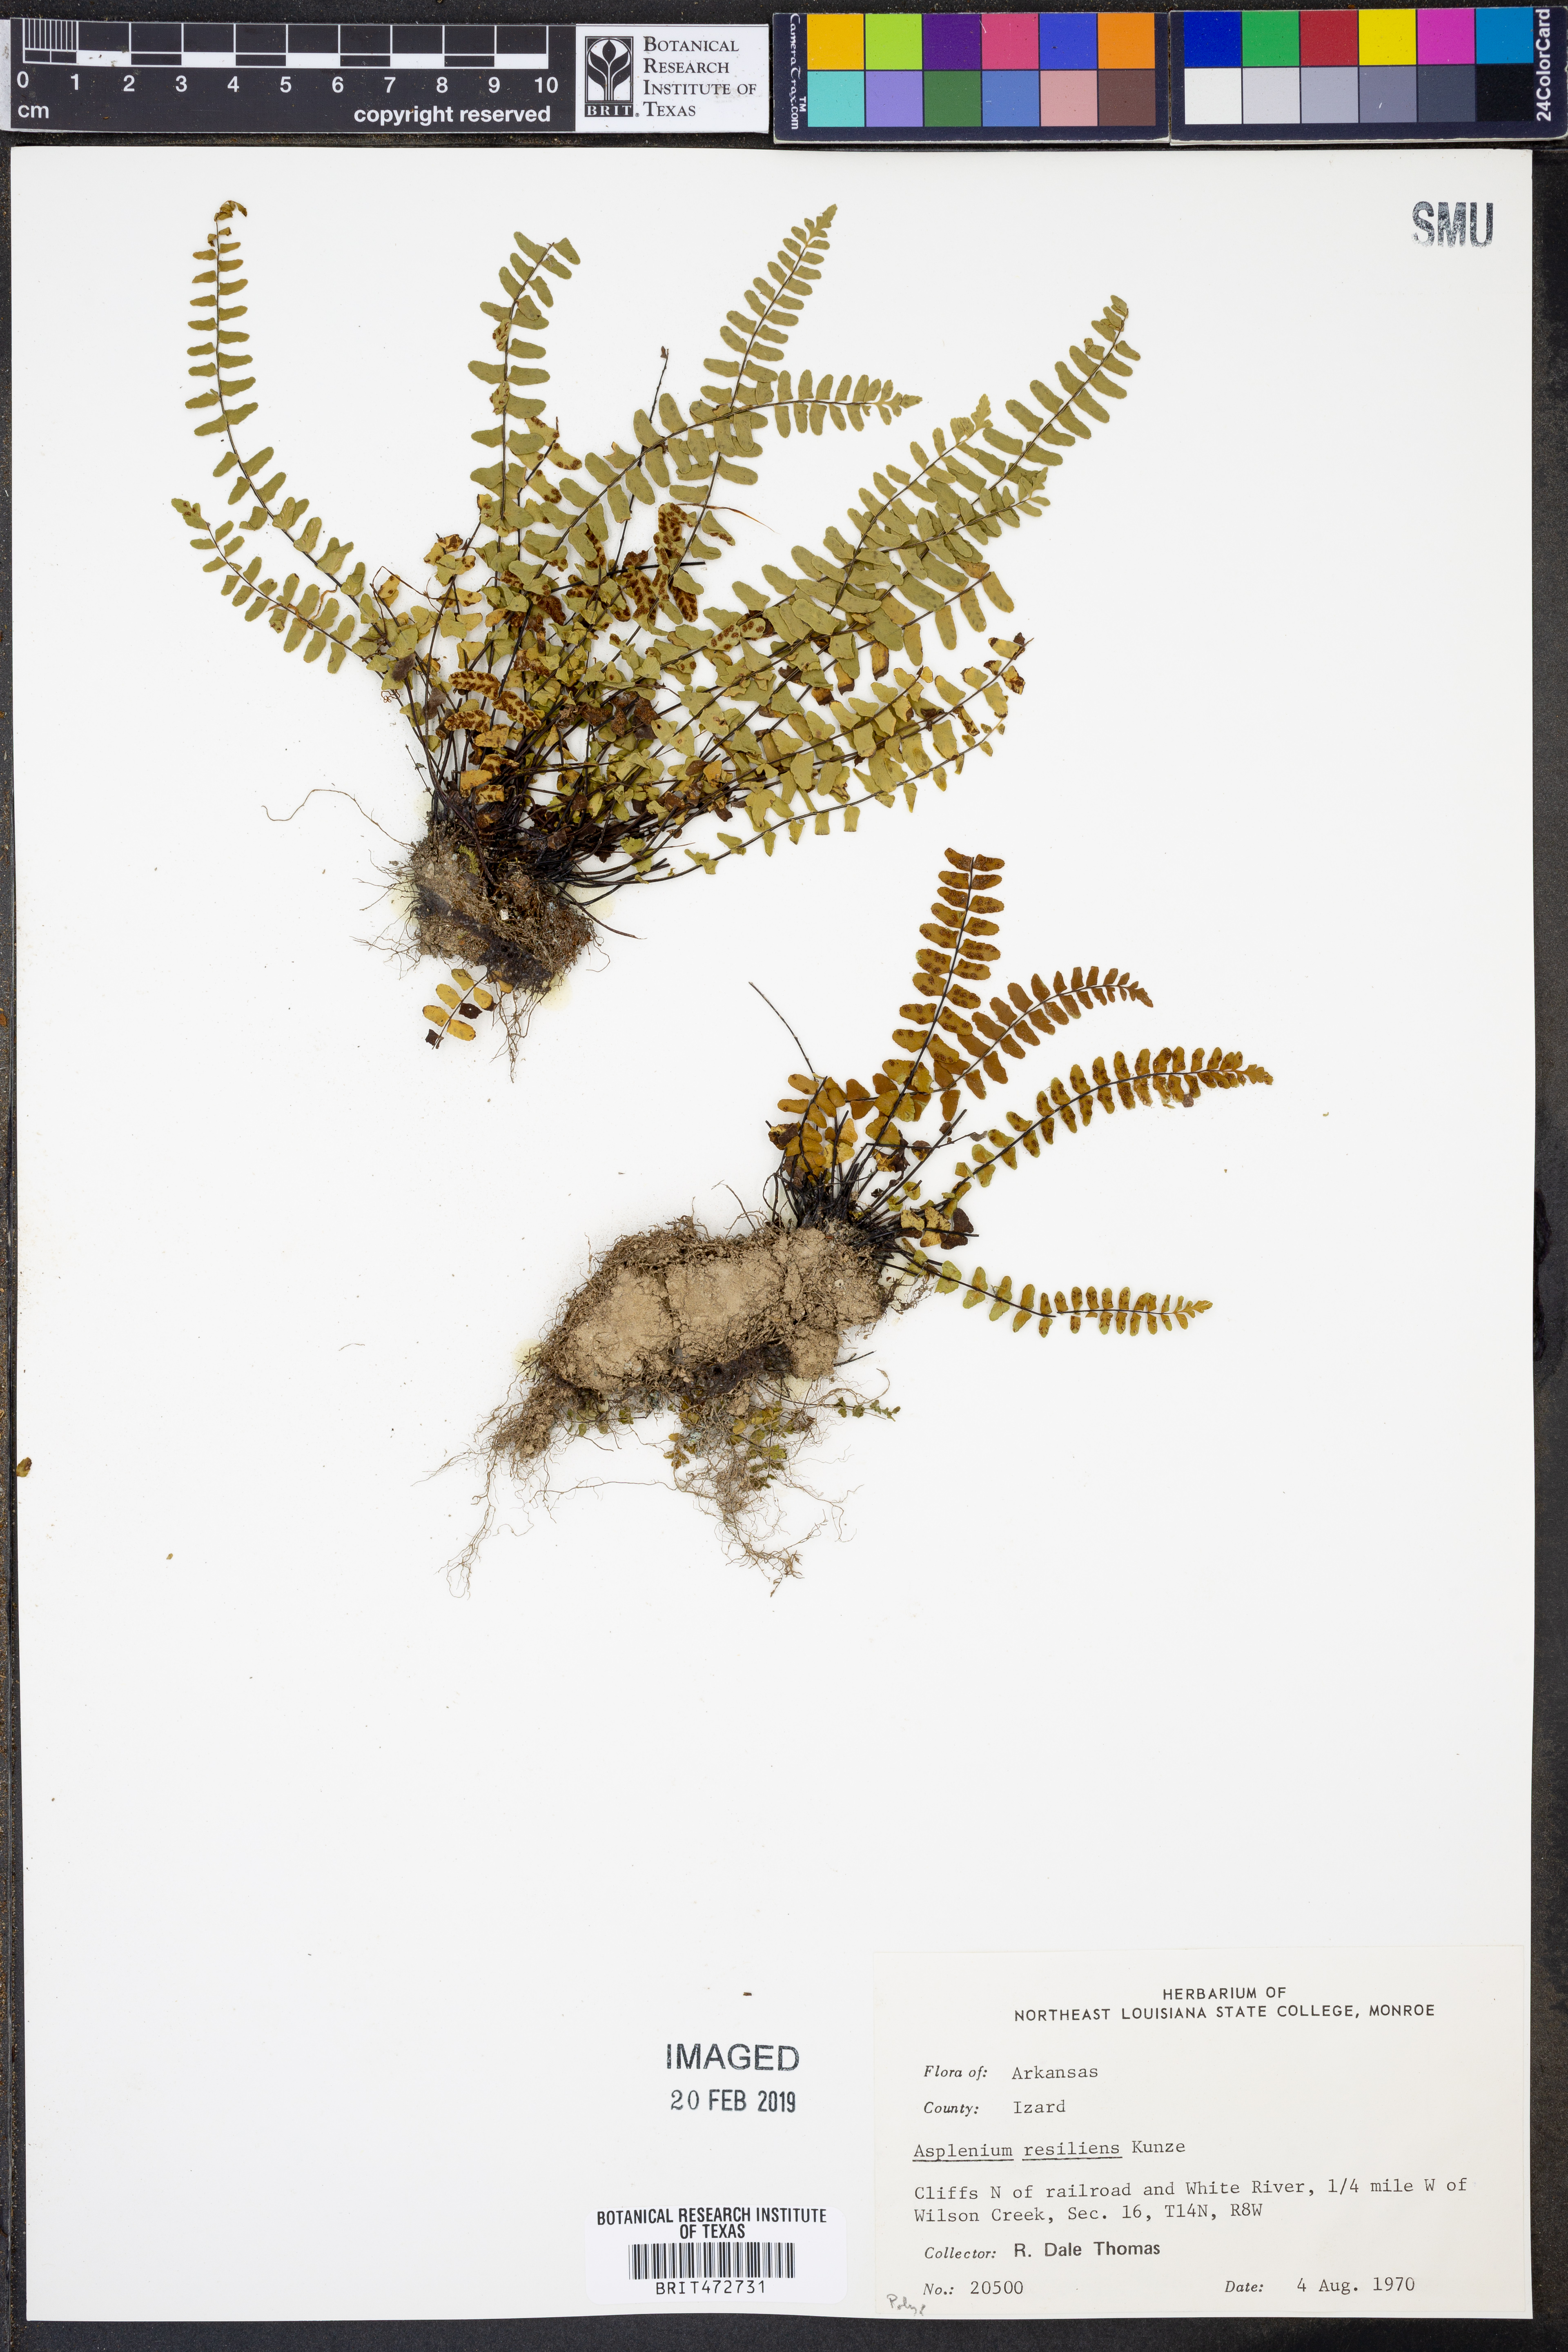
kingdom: Plantae
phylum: Tracheophyta
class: Polypodiopsida
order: Polypodiales
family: Aspleniaceae
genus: Asplenium
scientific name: Asplenium resiliens
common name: Blackstem spleenwort
